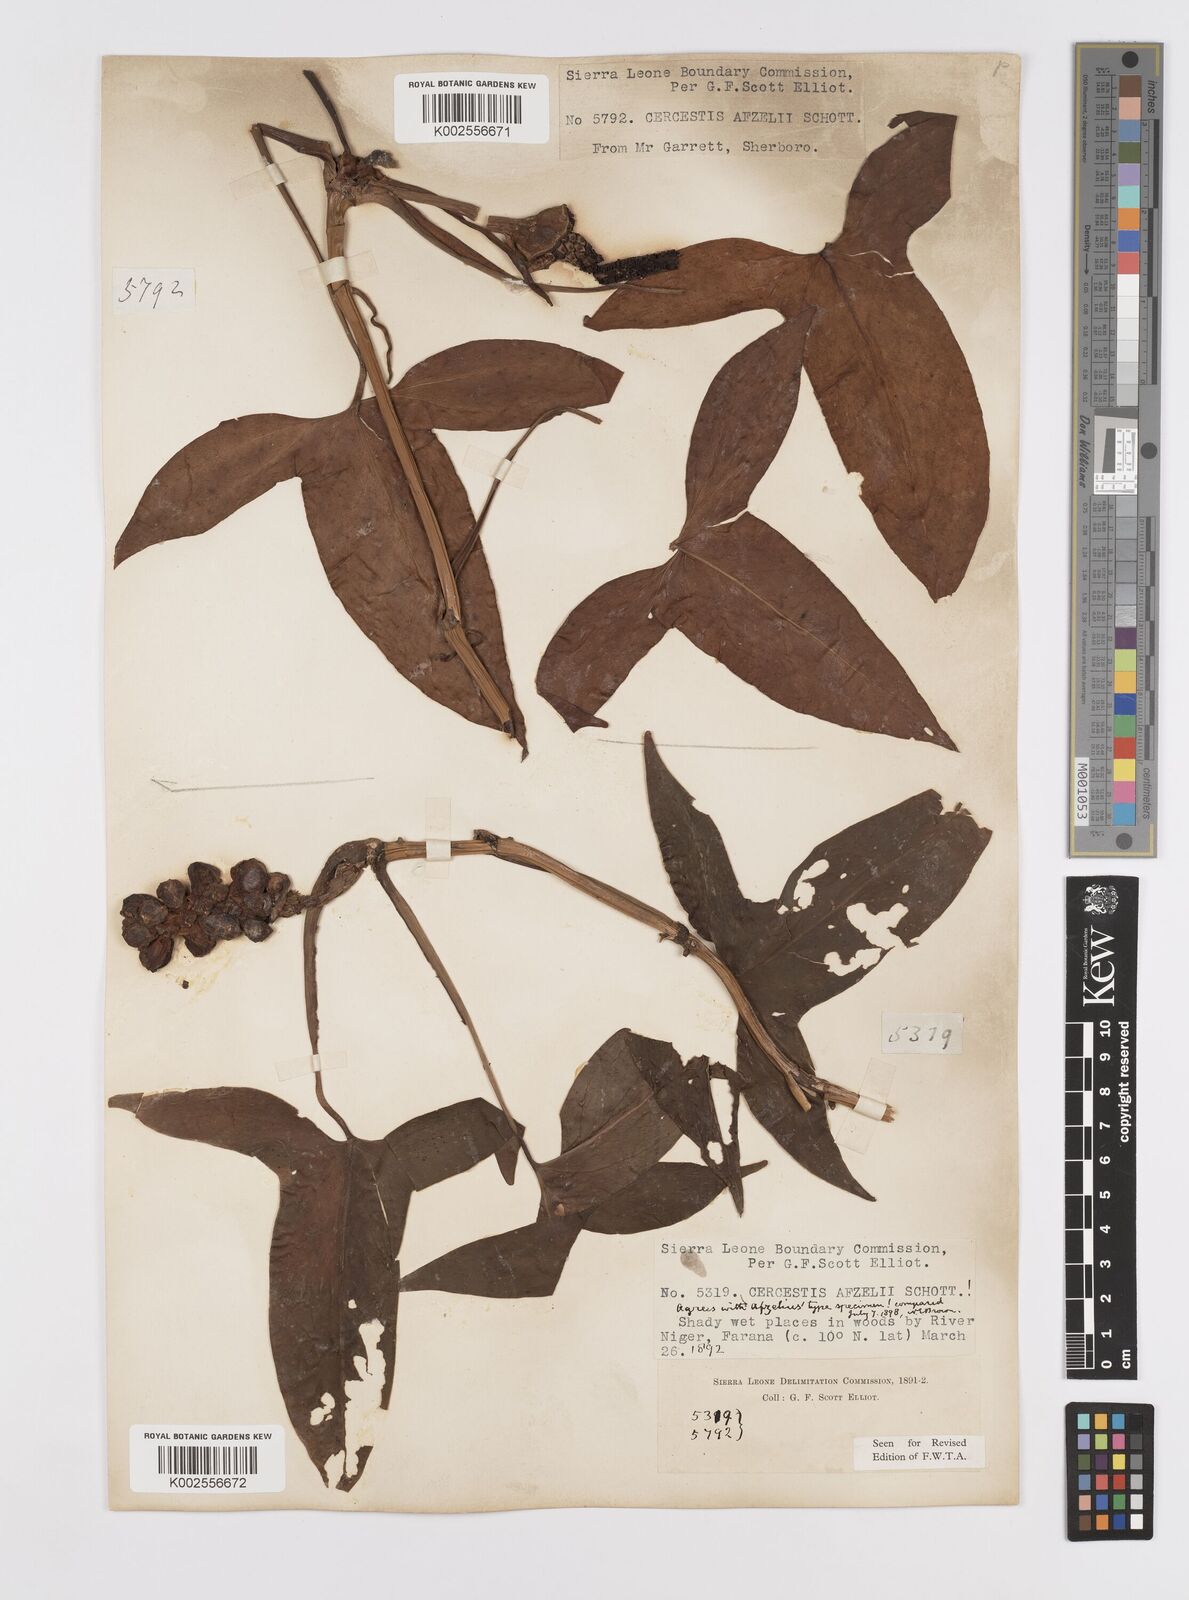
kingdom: Plantae
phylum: Tracheophyta
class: Liliopsida
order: Alismatales
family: Araceae
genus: Cercestis
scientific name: Cercestis afzelii
